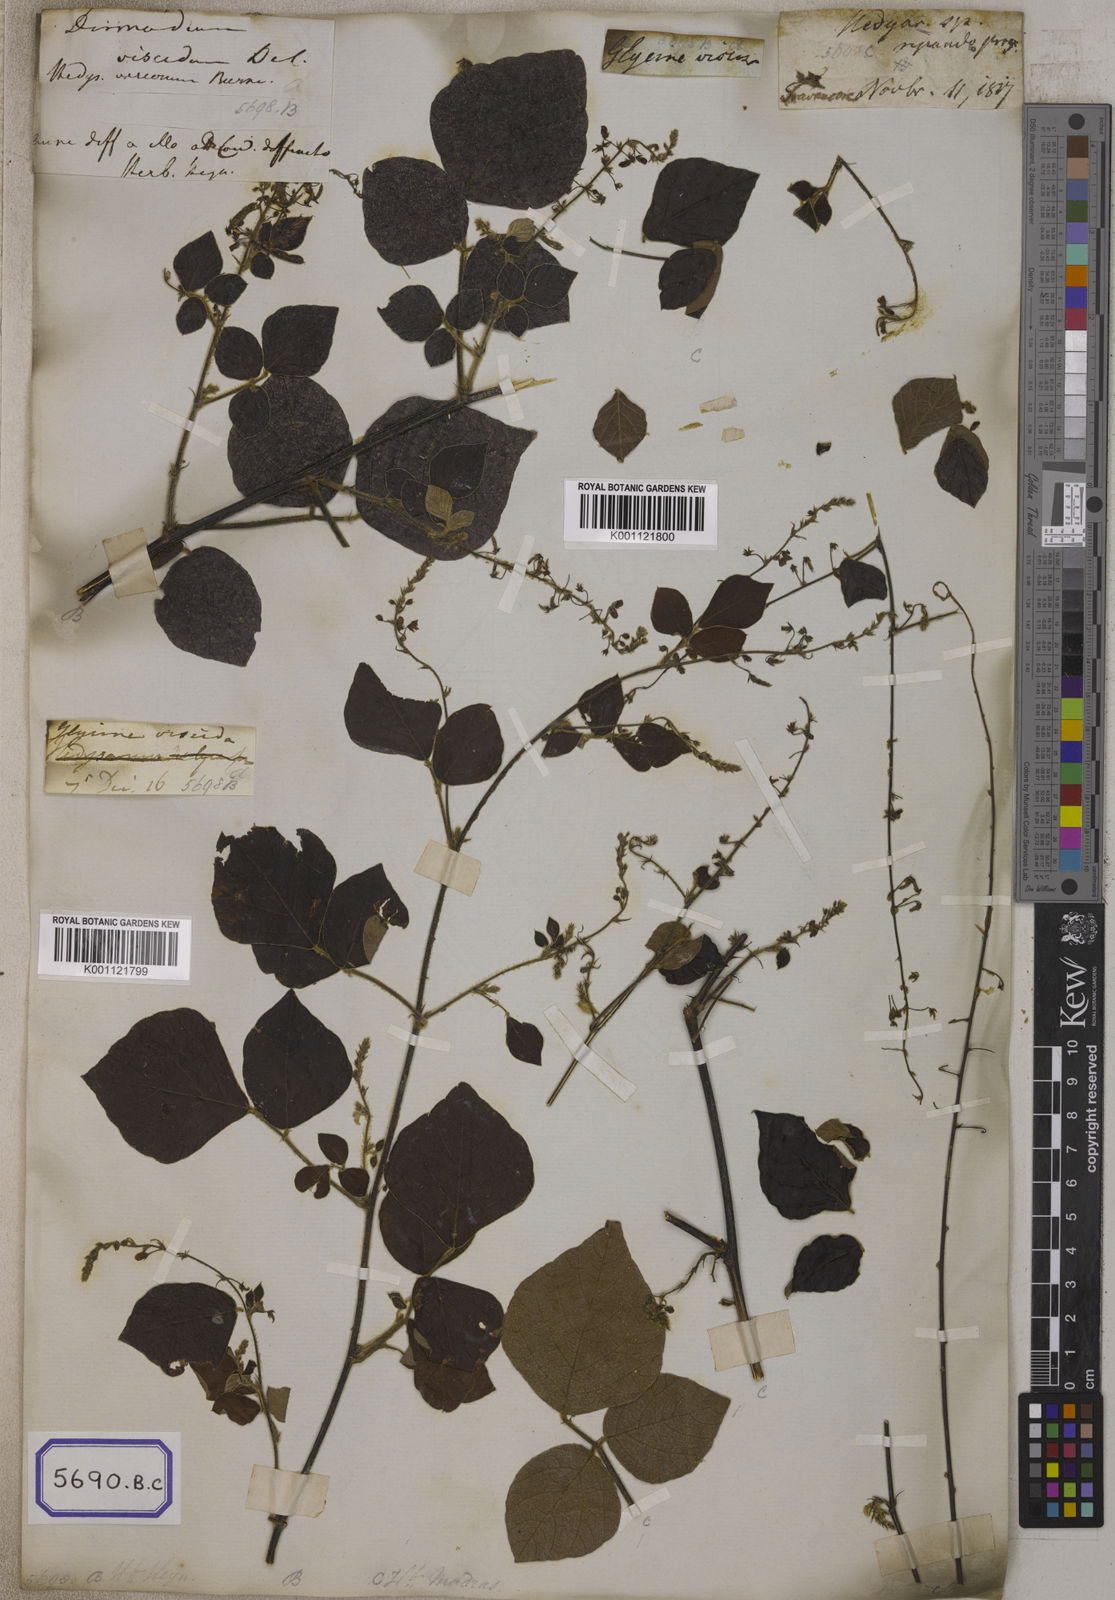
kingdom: Plantae
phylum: Tracheophyta
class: Magnoliopsida
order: Fabales
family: Fabaceae
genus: Pseudarthria
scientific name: Pseudarthria viscida
